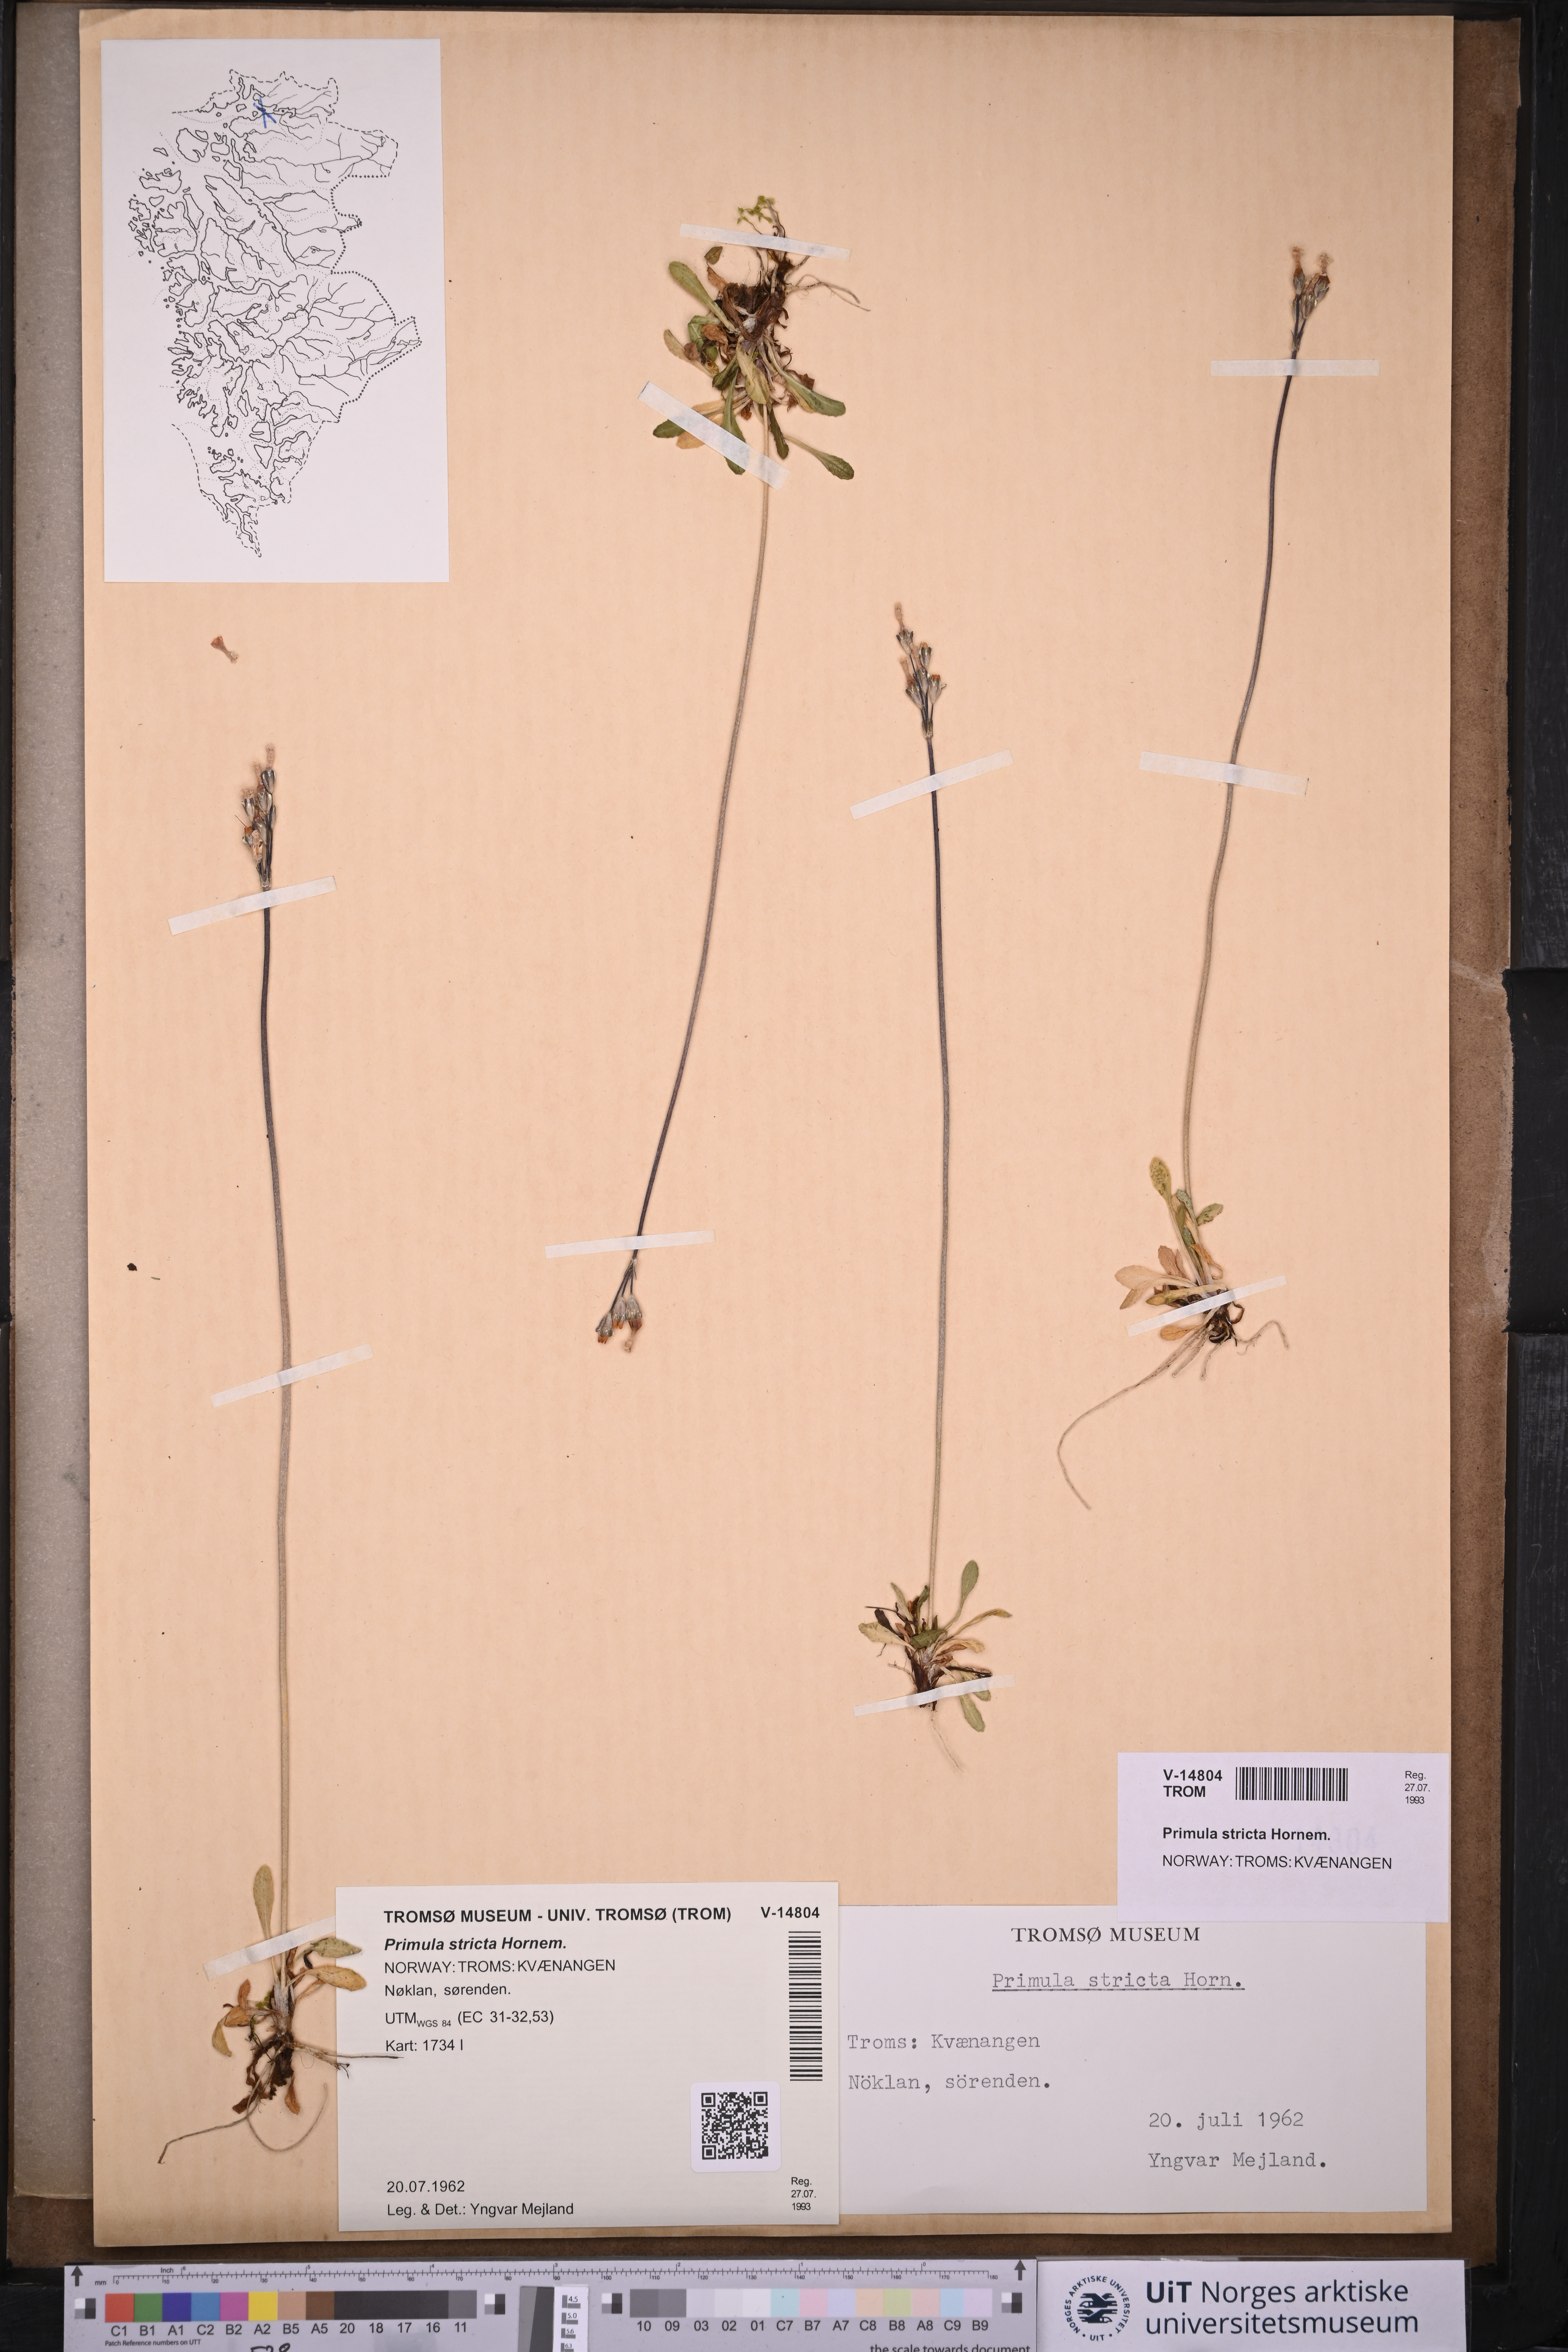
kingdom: Plantae
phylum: Tracheophyta
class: Magnoliopsida
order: Ericales
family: Primulaceae
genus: Primula
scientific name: Primula stricta
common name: Coastal primrose
